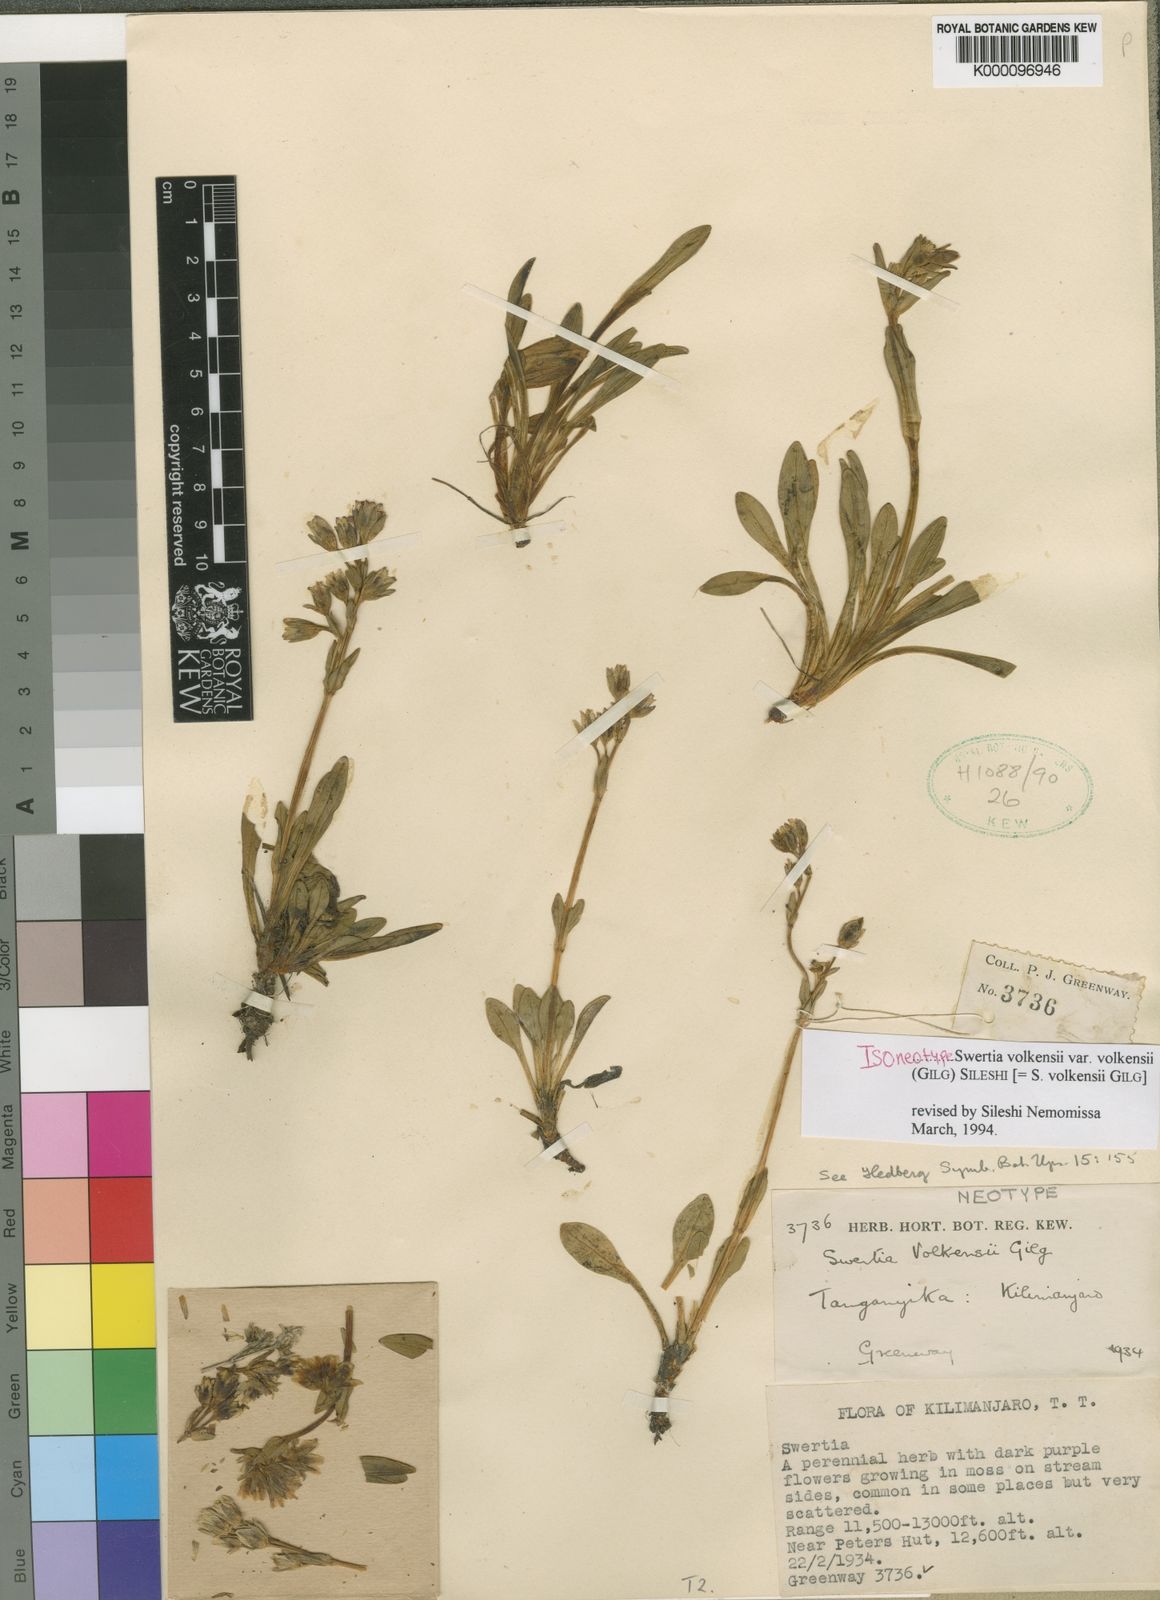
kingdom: Plantae
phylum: Tracheophyta
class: Magnoliopsida
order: Gentianales
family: Gentianaceae
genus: Swertia
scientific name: Swertia volkensii
